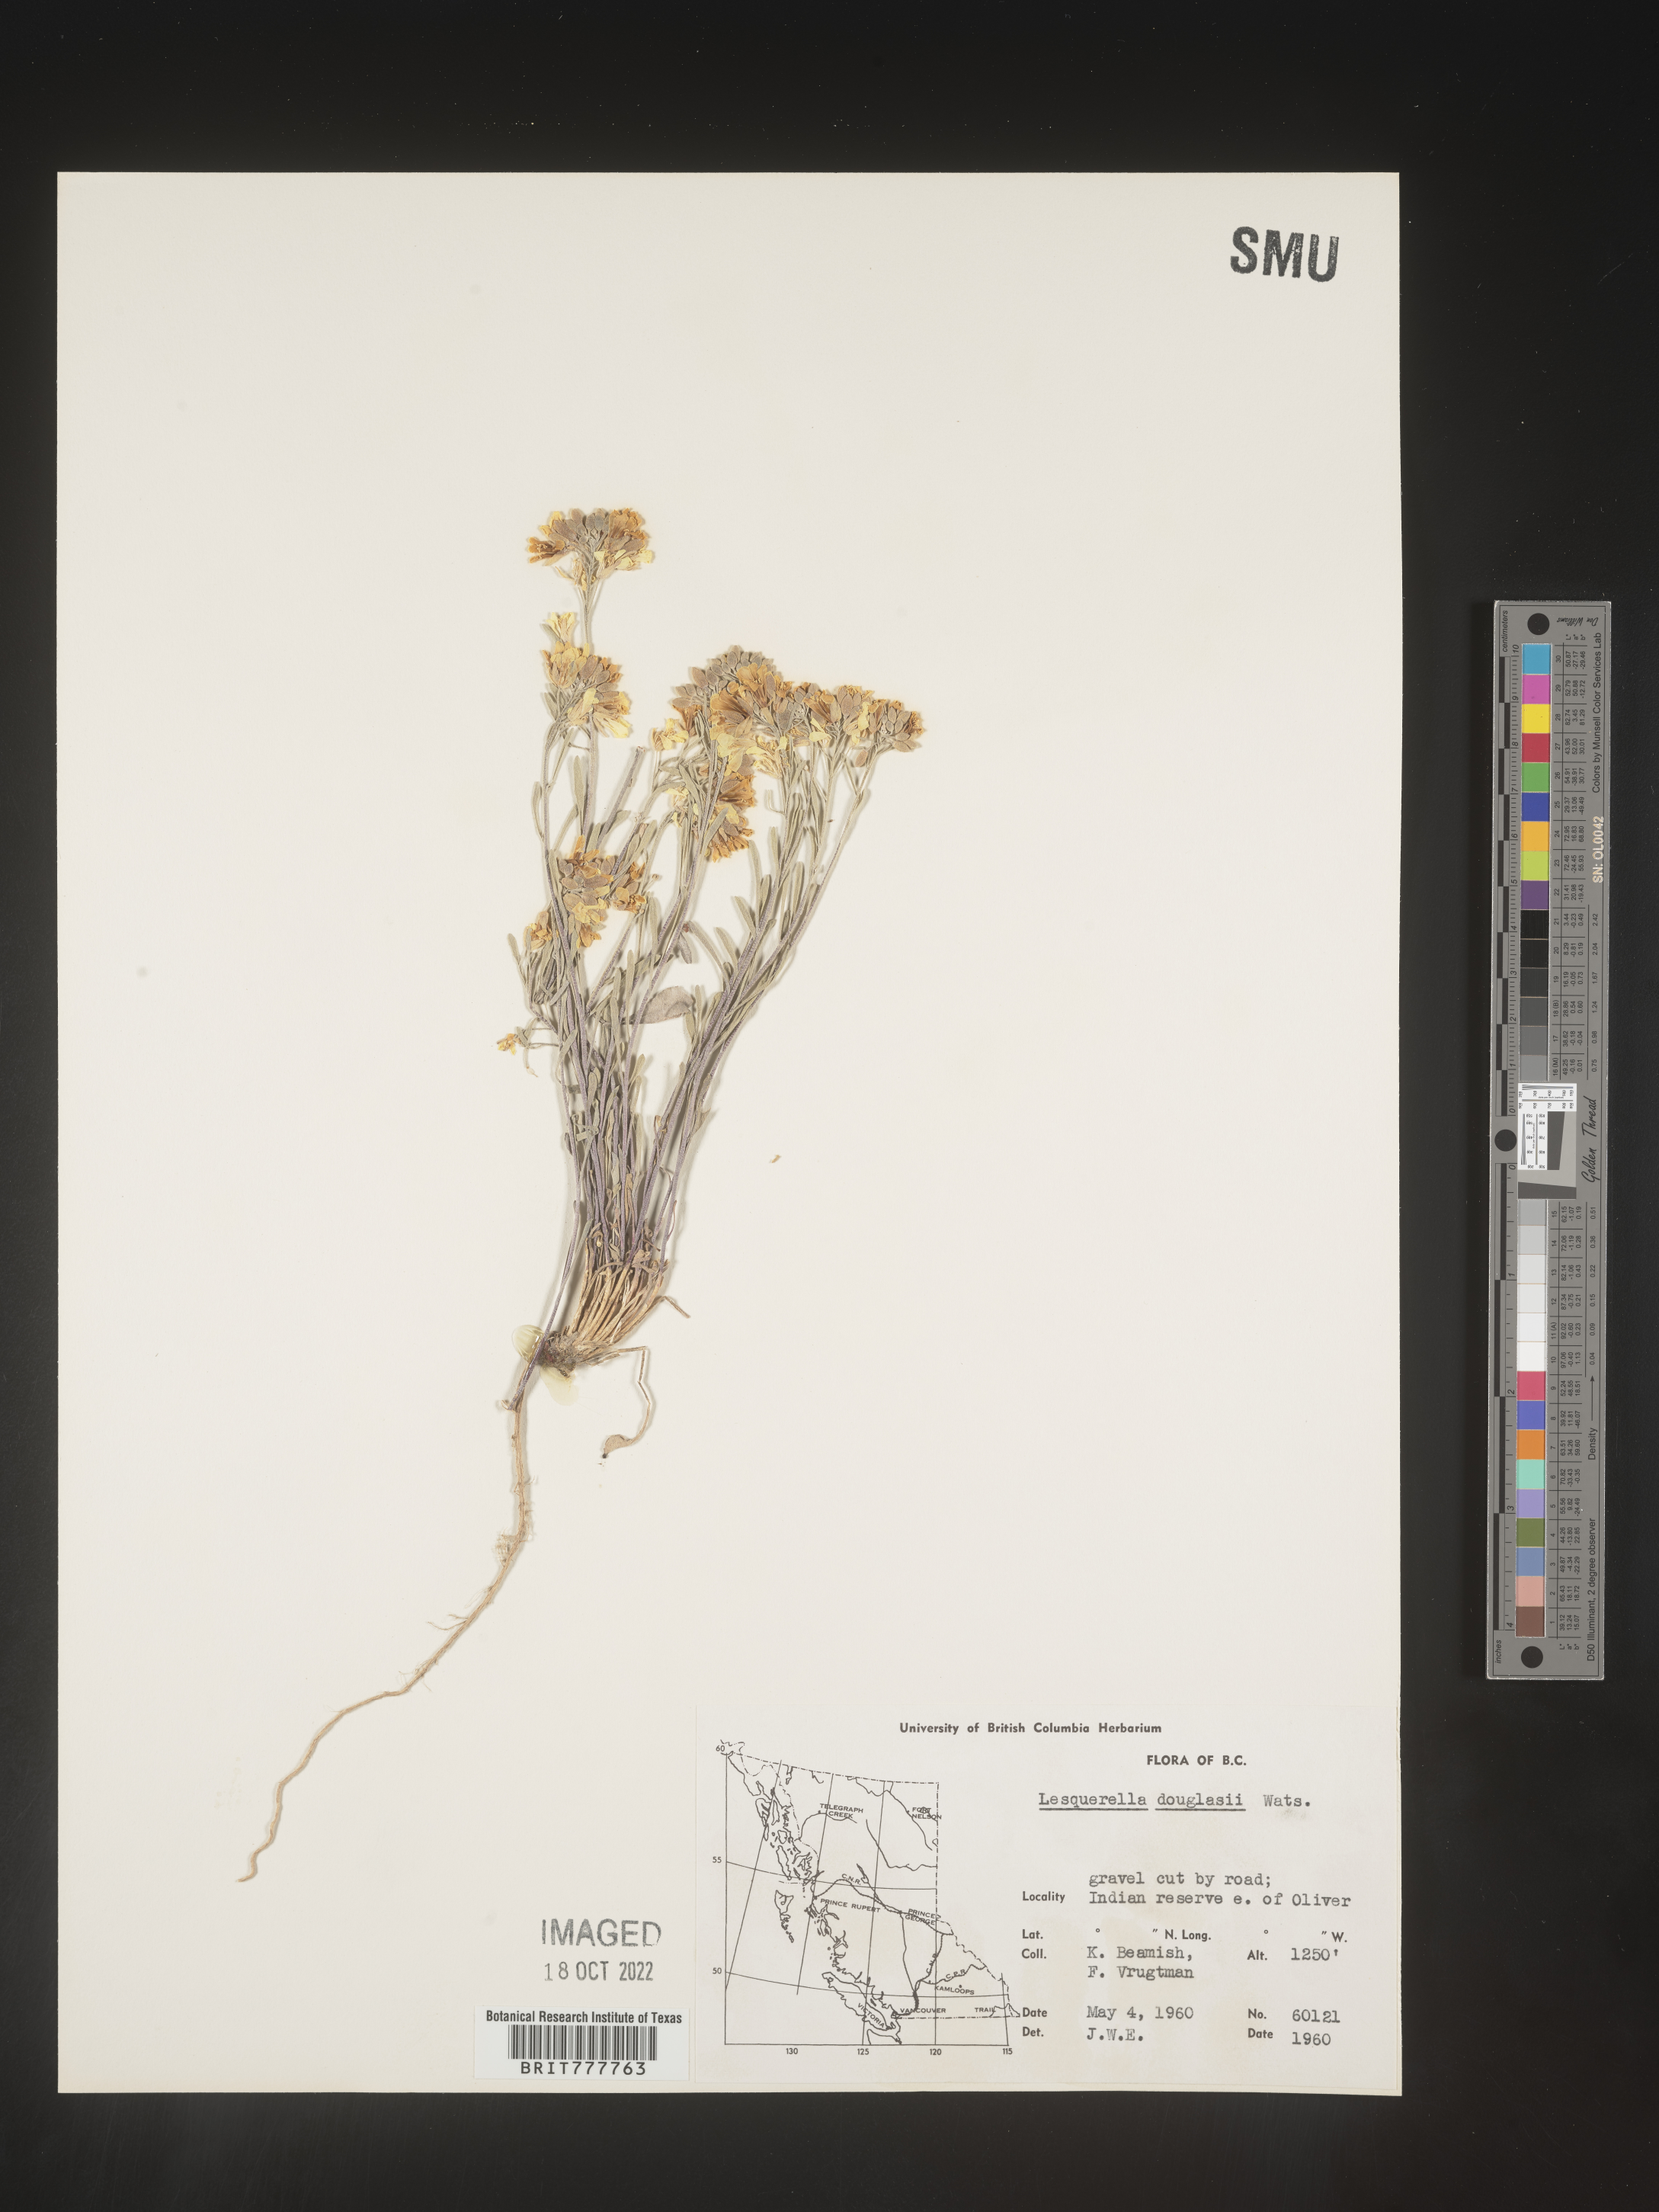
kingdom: Chromista
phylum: Cercozoa
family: Psammonobiotidae
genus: Lesquerella
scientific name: Lesquerella
